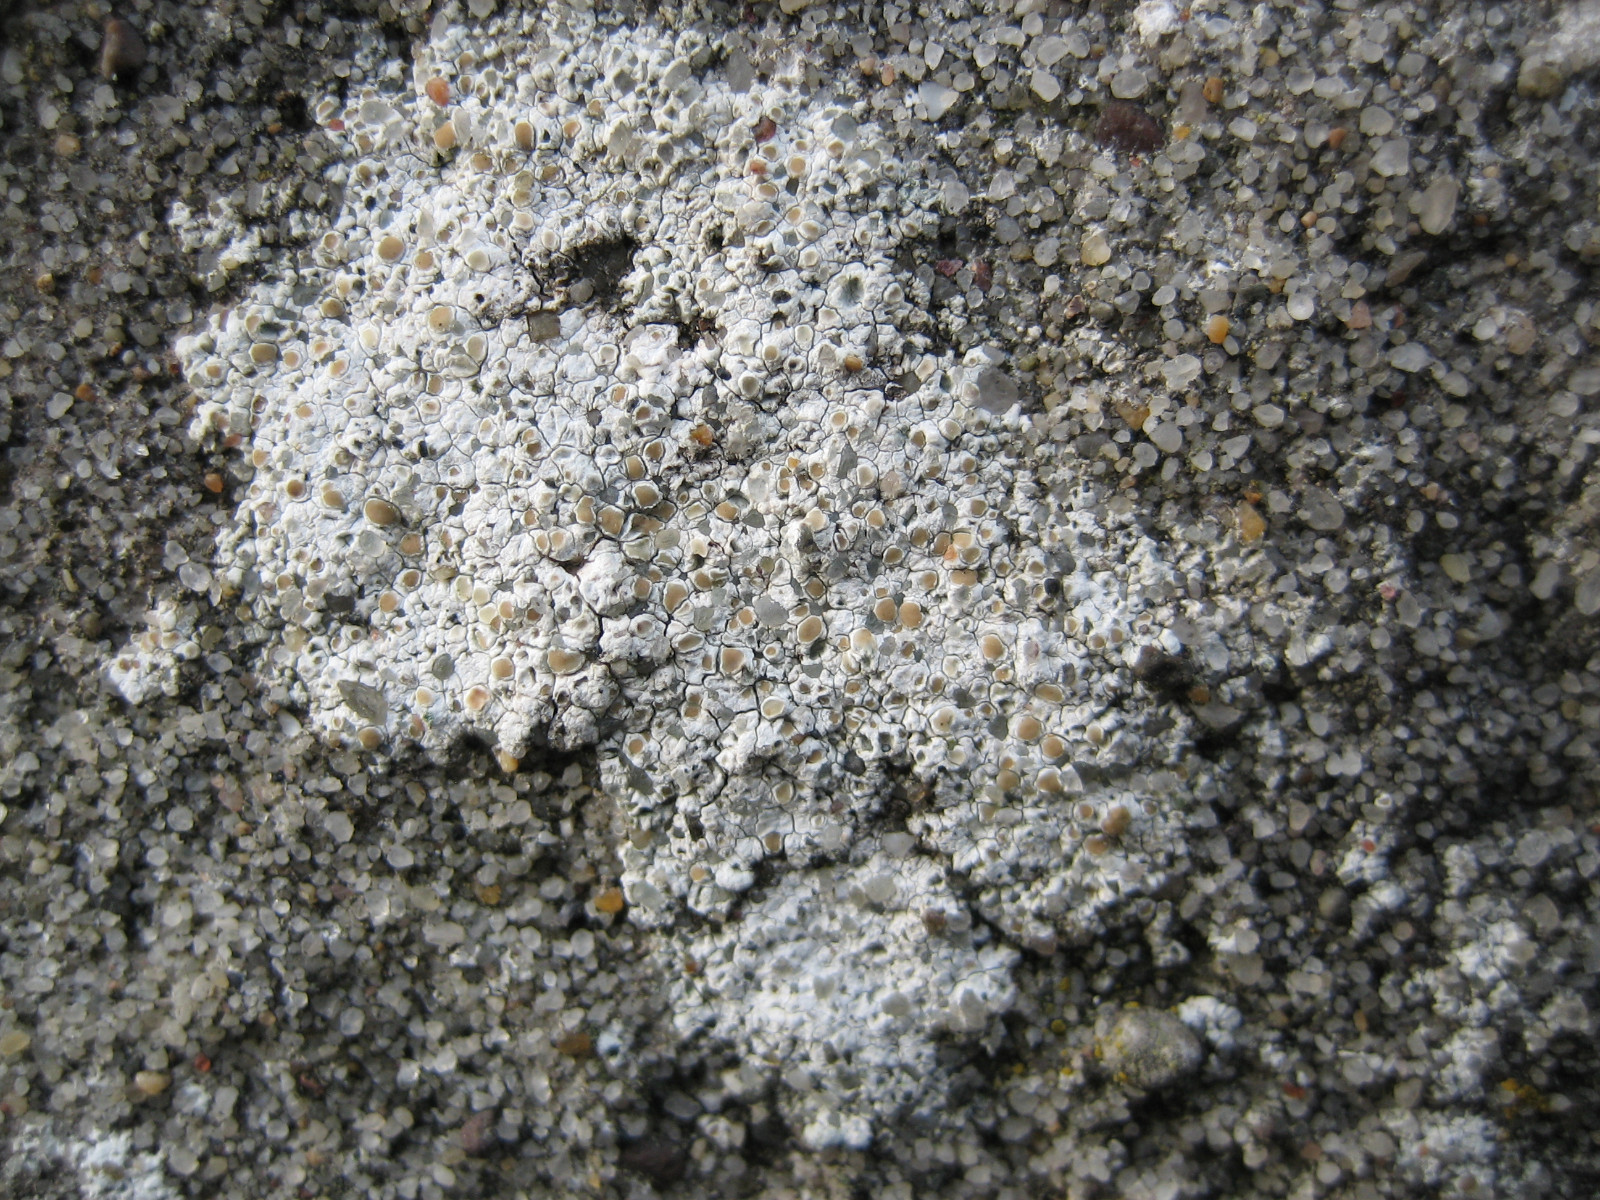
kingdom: Fungi
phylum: Ascomycota
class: Lecanoromycetes
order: Lecanorales
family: Lecanoraceae
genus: Polyozosia
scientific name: Polyozosia albescens
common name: cement-kantskivelav
